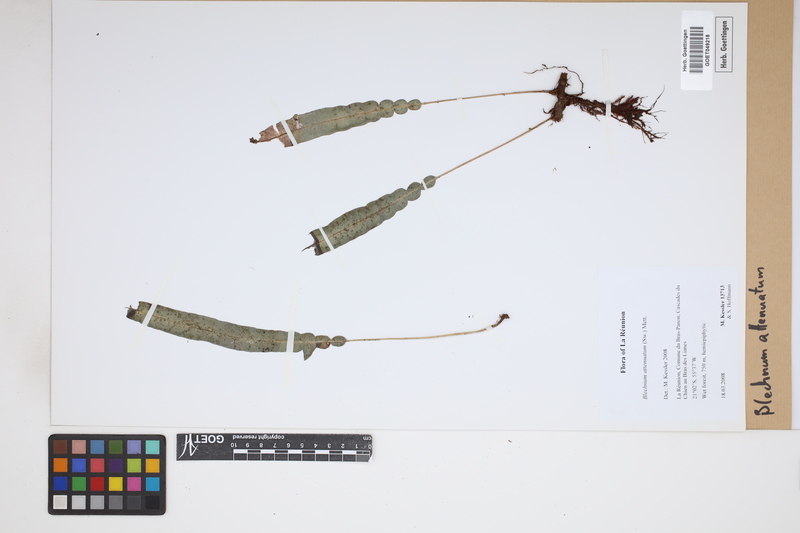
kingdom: Plantae
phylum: Tracheophyta
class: Polypodiopsida
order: Polypodiales
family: Blechnaceae
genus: Lomaridium
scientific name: Lomaridium attenuatum
